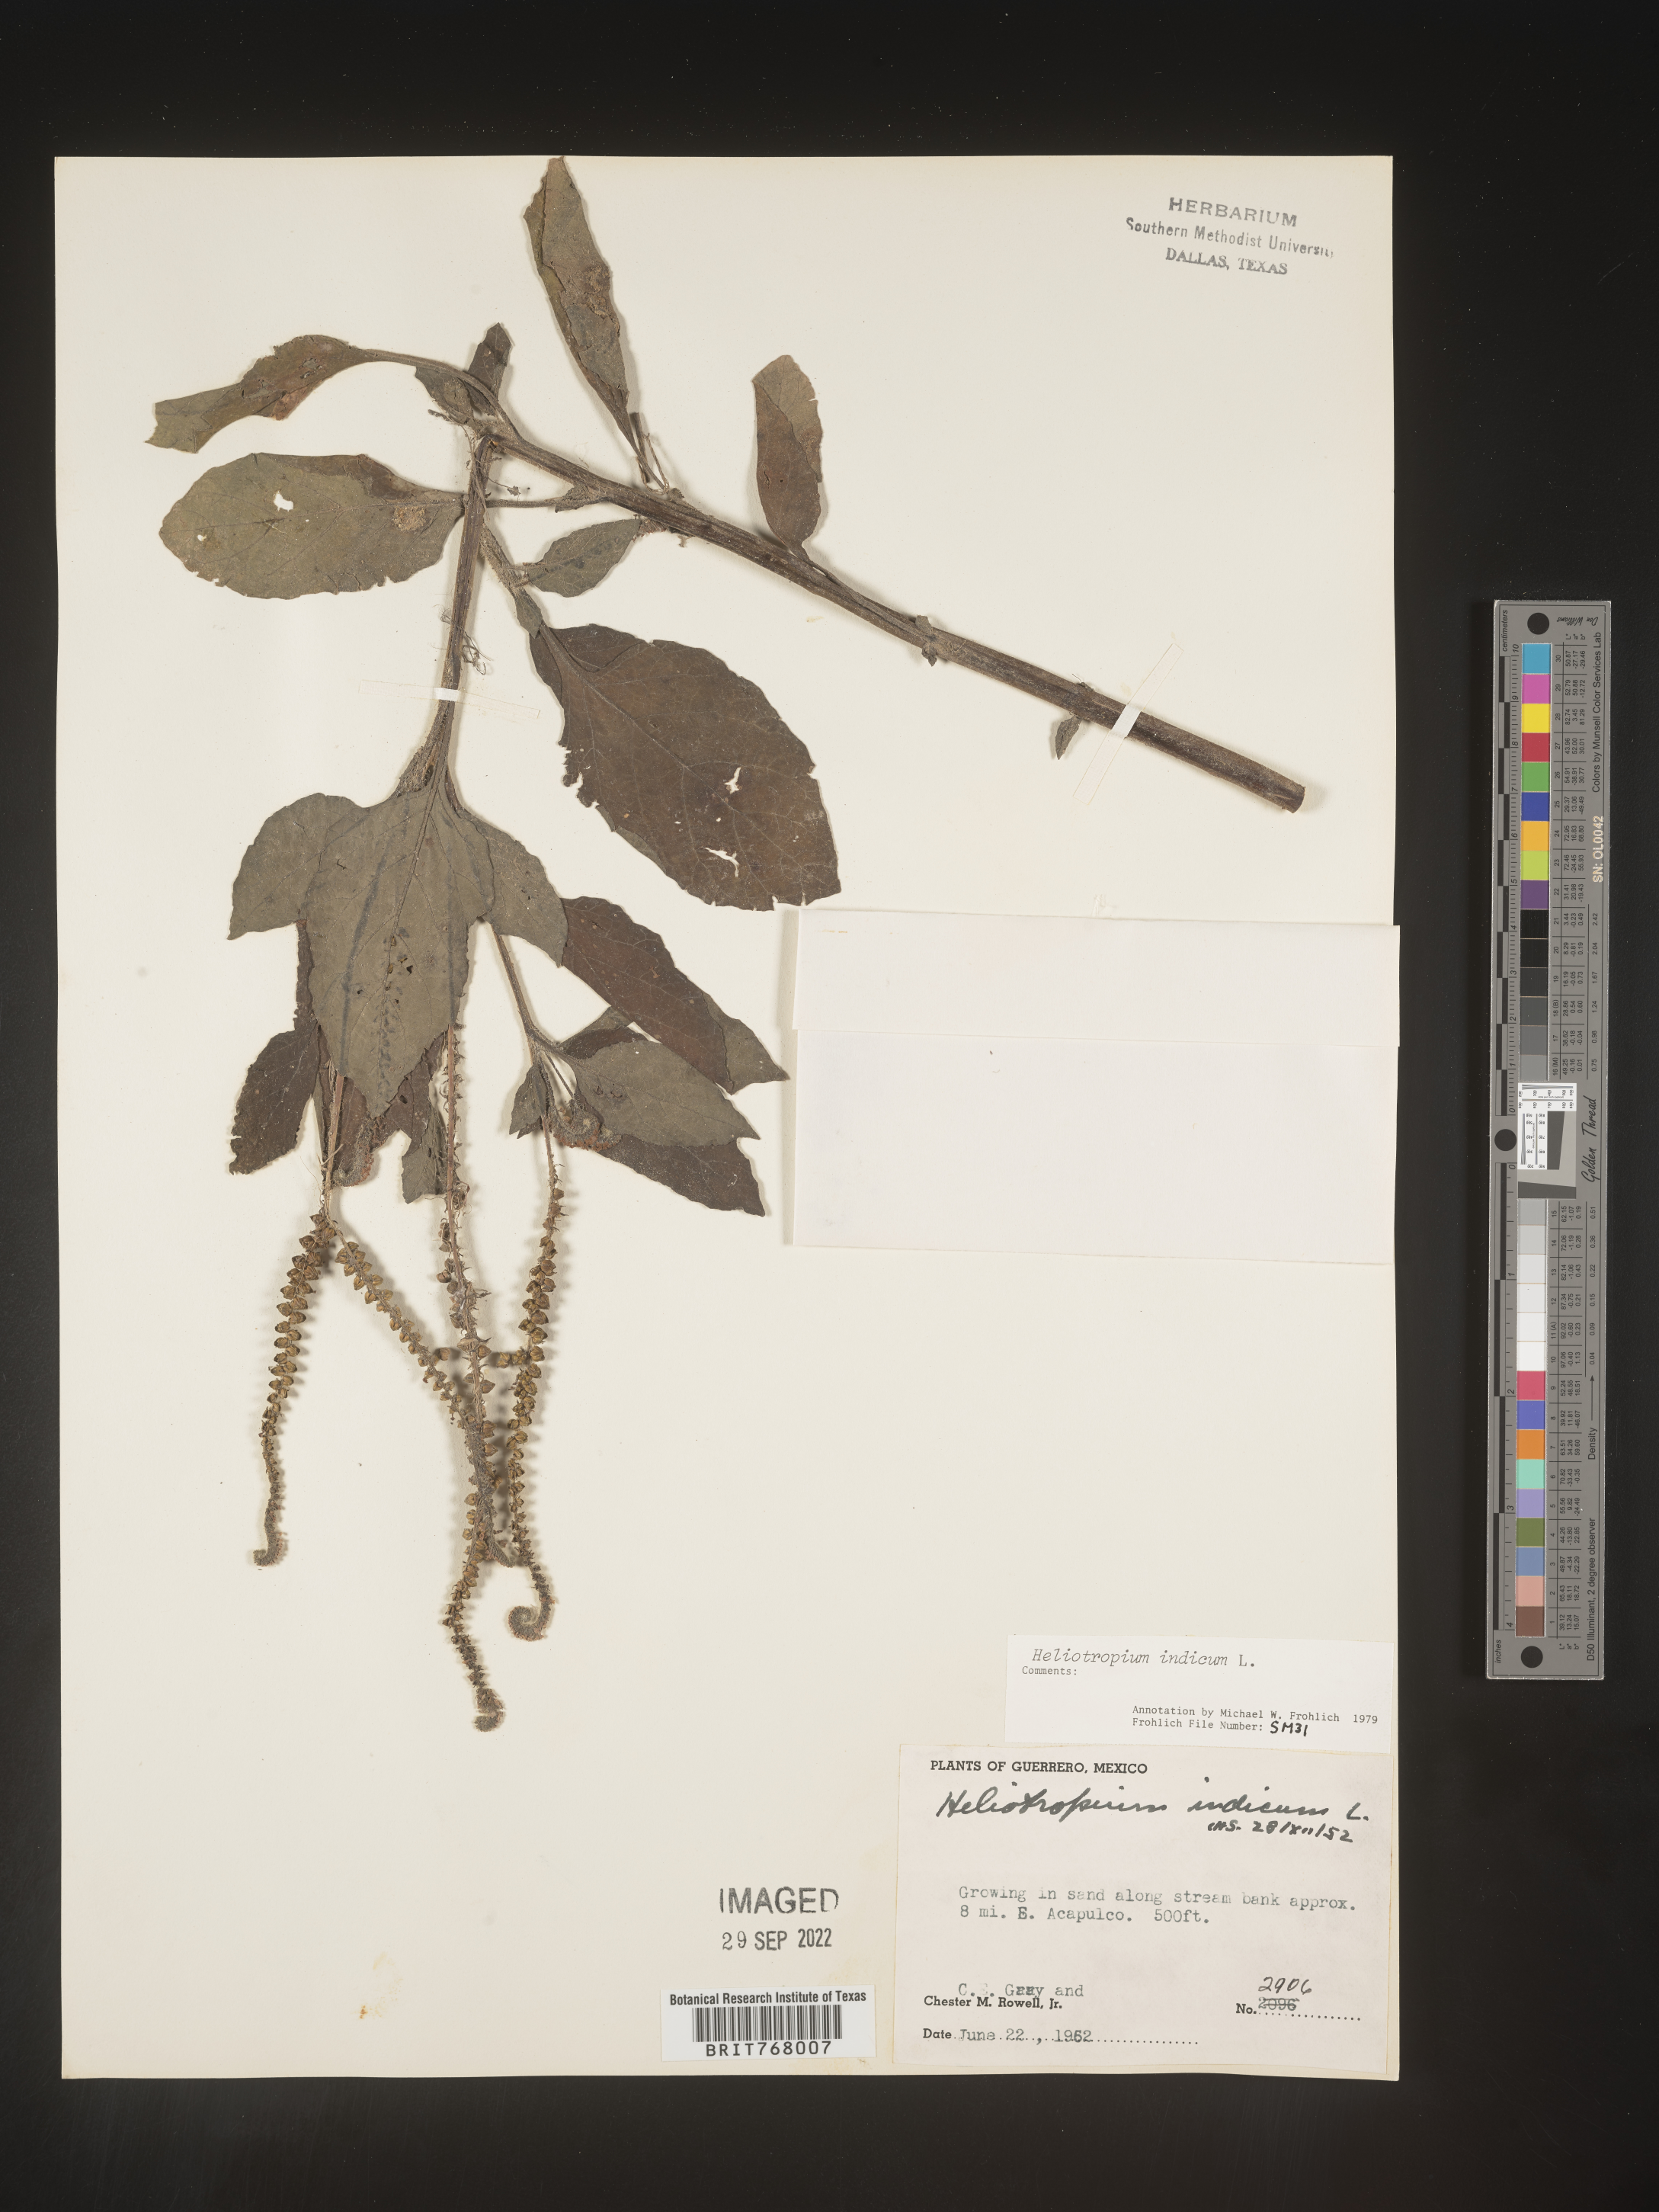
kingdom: Plantae
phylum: Tracheophyta
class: Magnoliopsida
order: Boraginales
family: Heliotropiaceae
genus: Heliotropium
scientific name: Heliotropium
